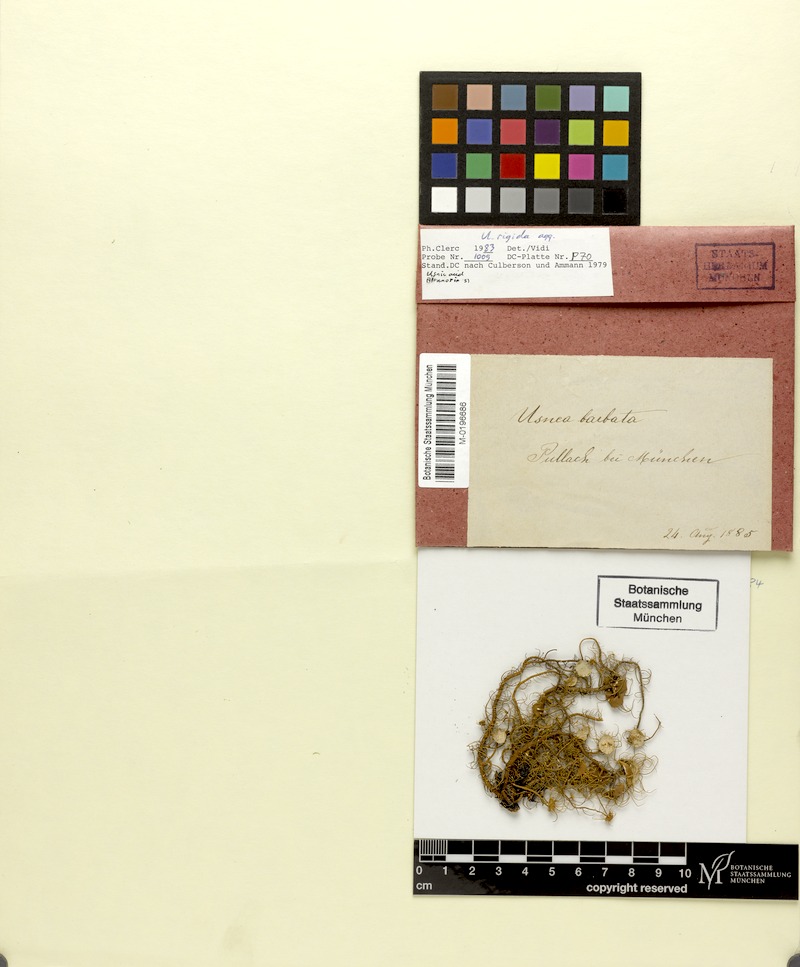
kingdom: Fungi
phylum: Ascomycota
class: Lecanoromycetes
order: Lecanorales
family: Parmeliaceae
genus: Usnea
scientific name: Usnea quasirigida
